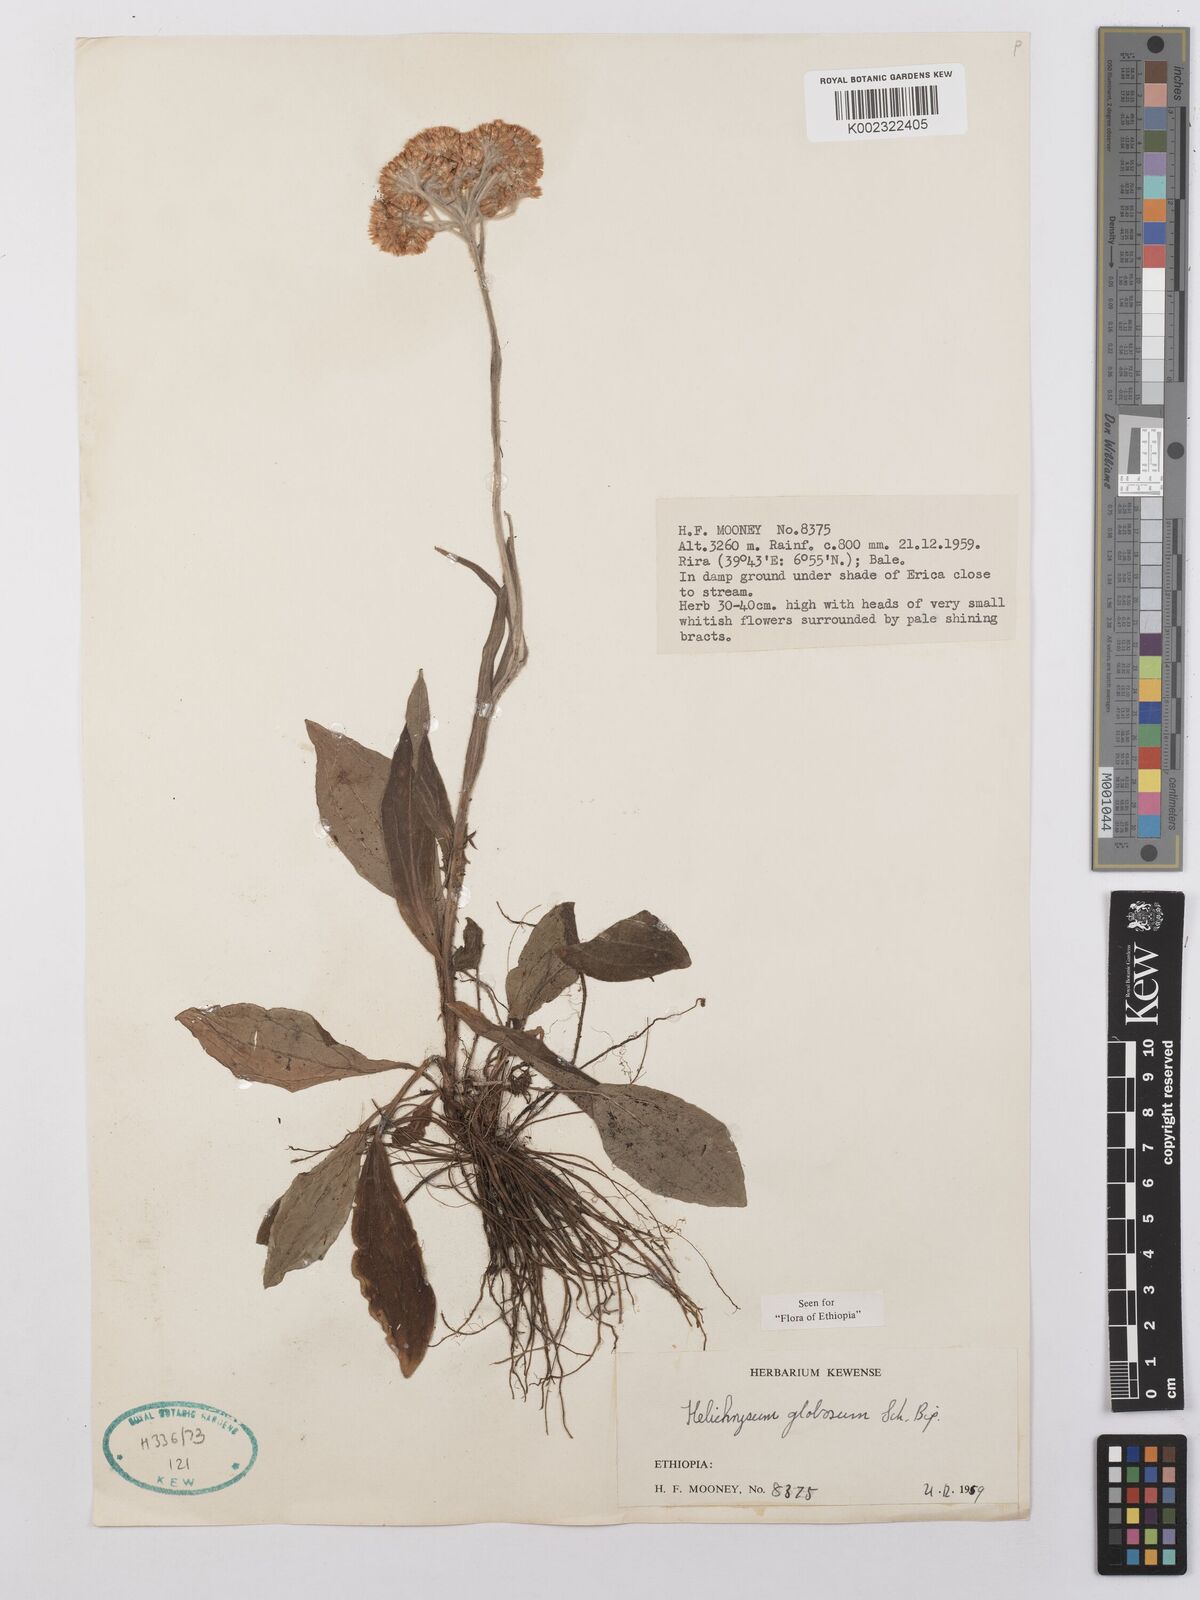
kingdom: Plantae
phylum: Tracheophyta
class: Magnoliopsida
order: Asterales
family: Asteraceae
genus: Helichrysum
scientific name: Helichrysum globosum
